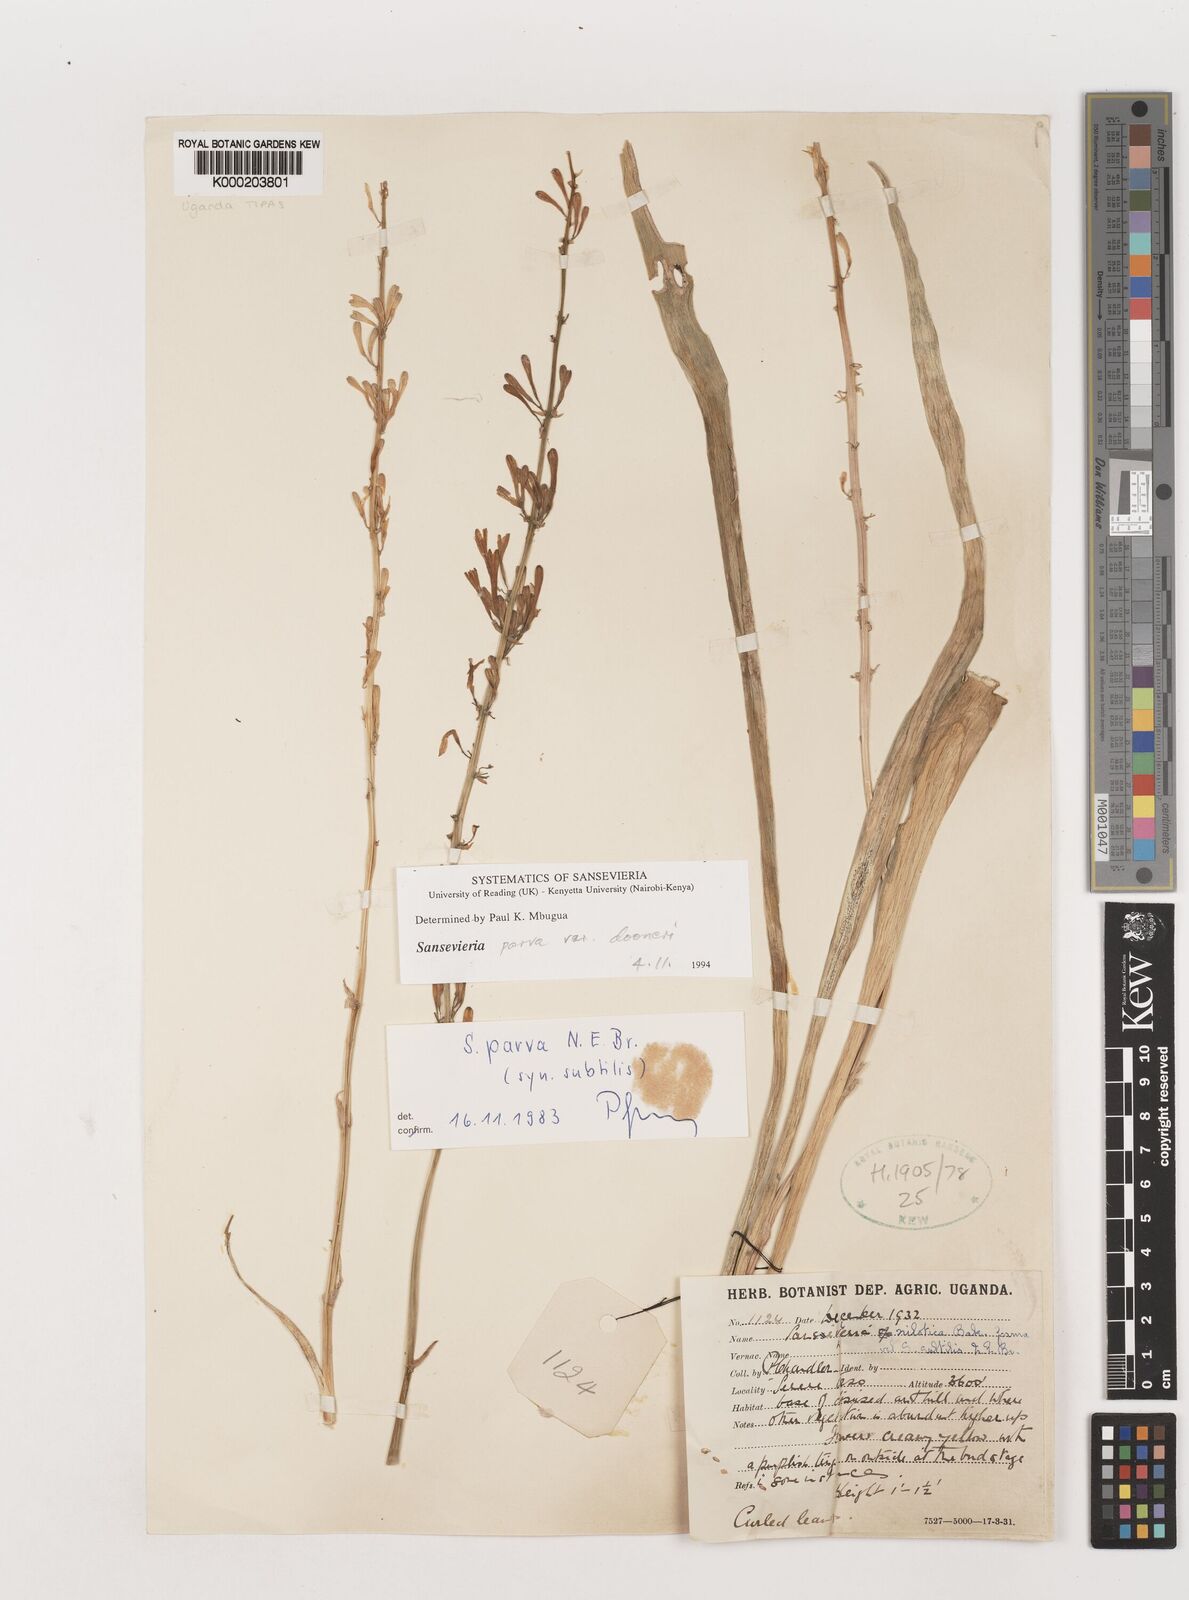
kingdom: Plantae
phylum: Tracheophyta
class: Liliopsida
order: Asparagales
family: Asparagaceae
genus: Dracaena
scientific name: Dracaena parva
